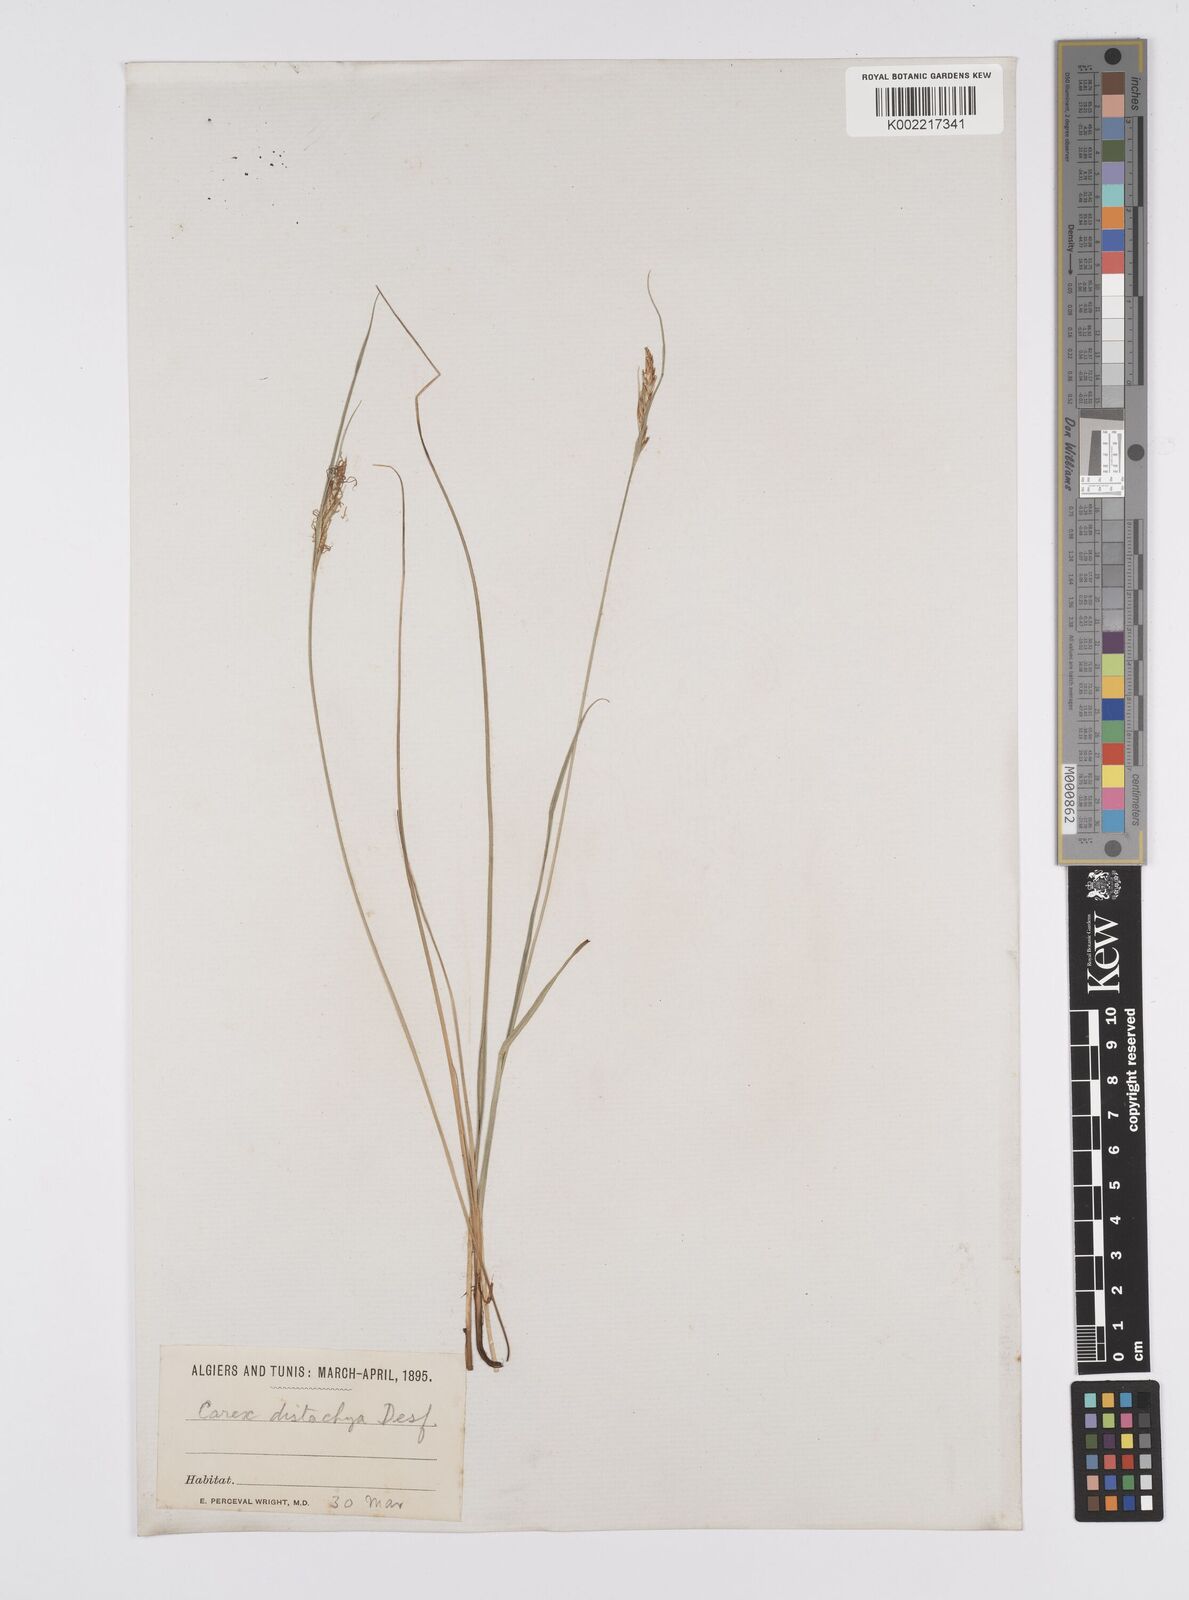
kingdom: Plantae
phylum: Tracheophyta
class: Liliopsida
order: Poales
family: Cyperaceae
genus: Carex
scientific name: Carex distachya
